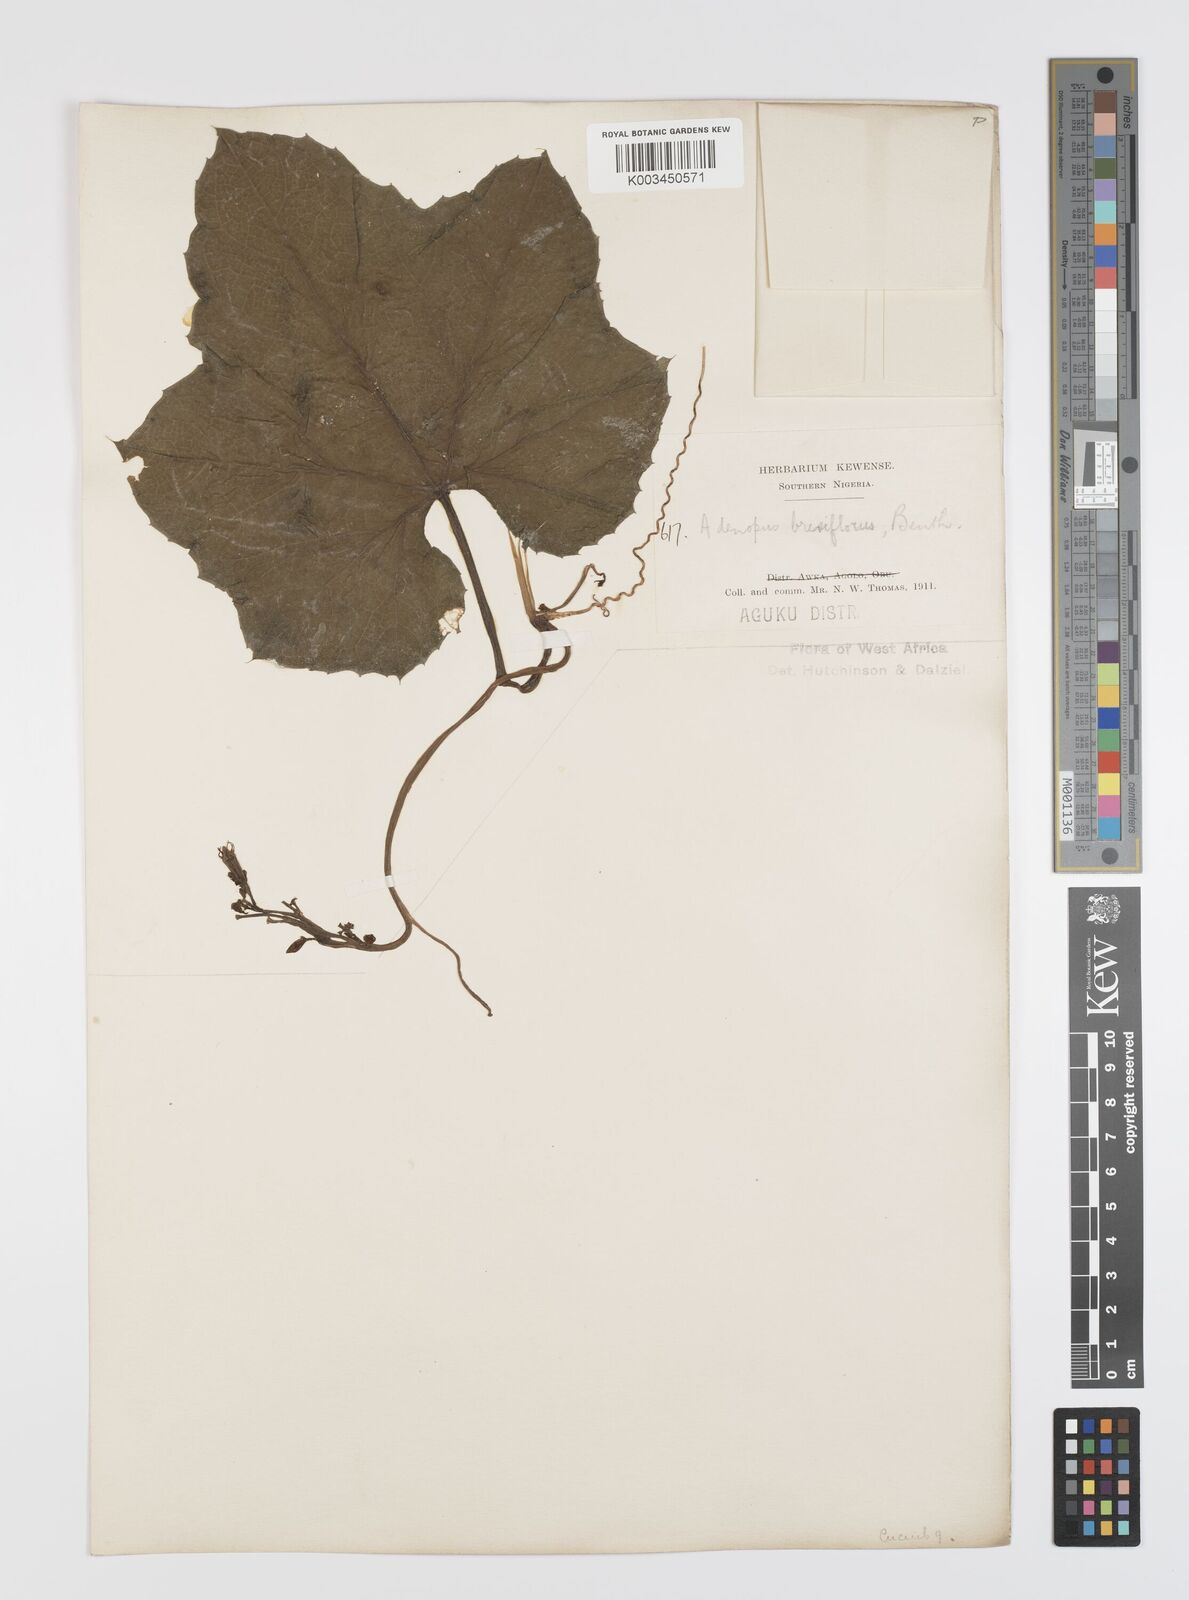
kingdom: Plantae
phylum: Tracheophyta
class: Magnoliopsida
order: Cucurbitales
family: Cucurbitaceae
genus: Lagenaria
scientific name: Lagenaria breviflora
